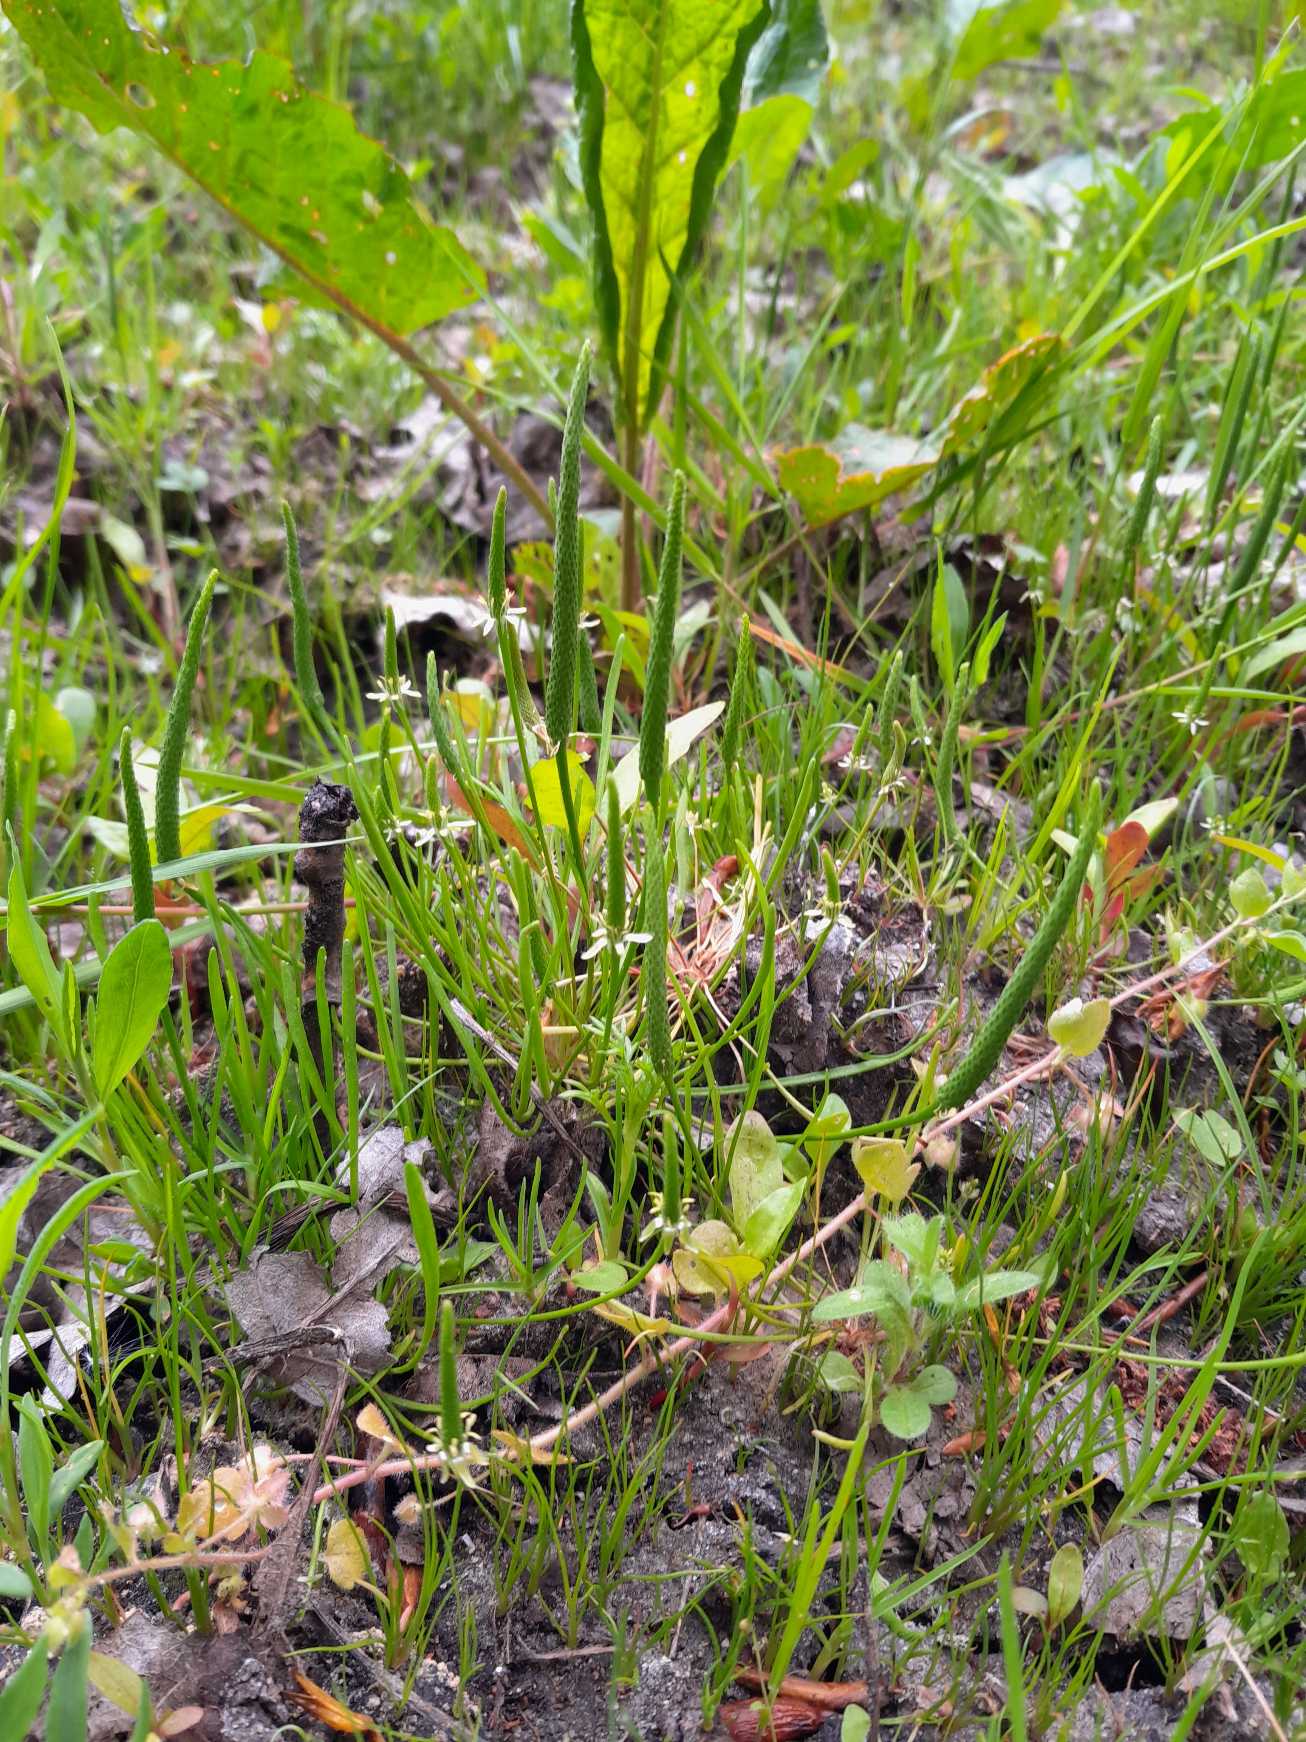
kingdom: Plantae
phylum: Tracheophyta
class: Magnoliopsida
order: Ranunculales
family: Ranunculaceae
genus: Myosurus
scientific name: Myosurus minimus
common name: Musehale
